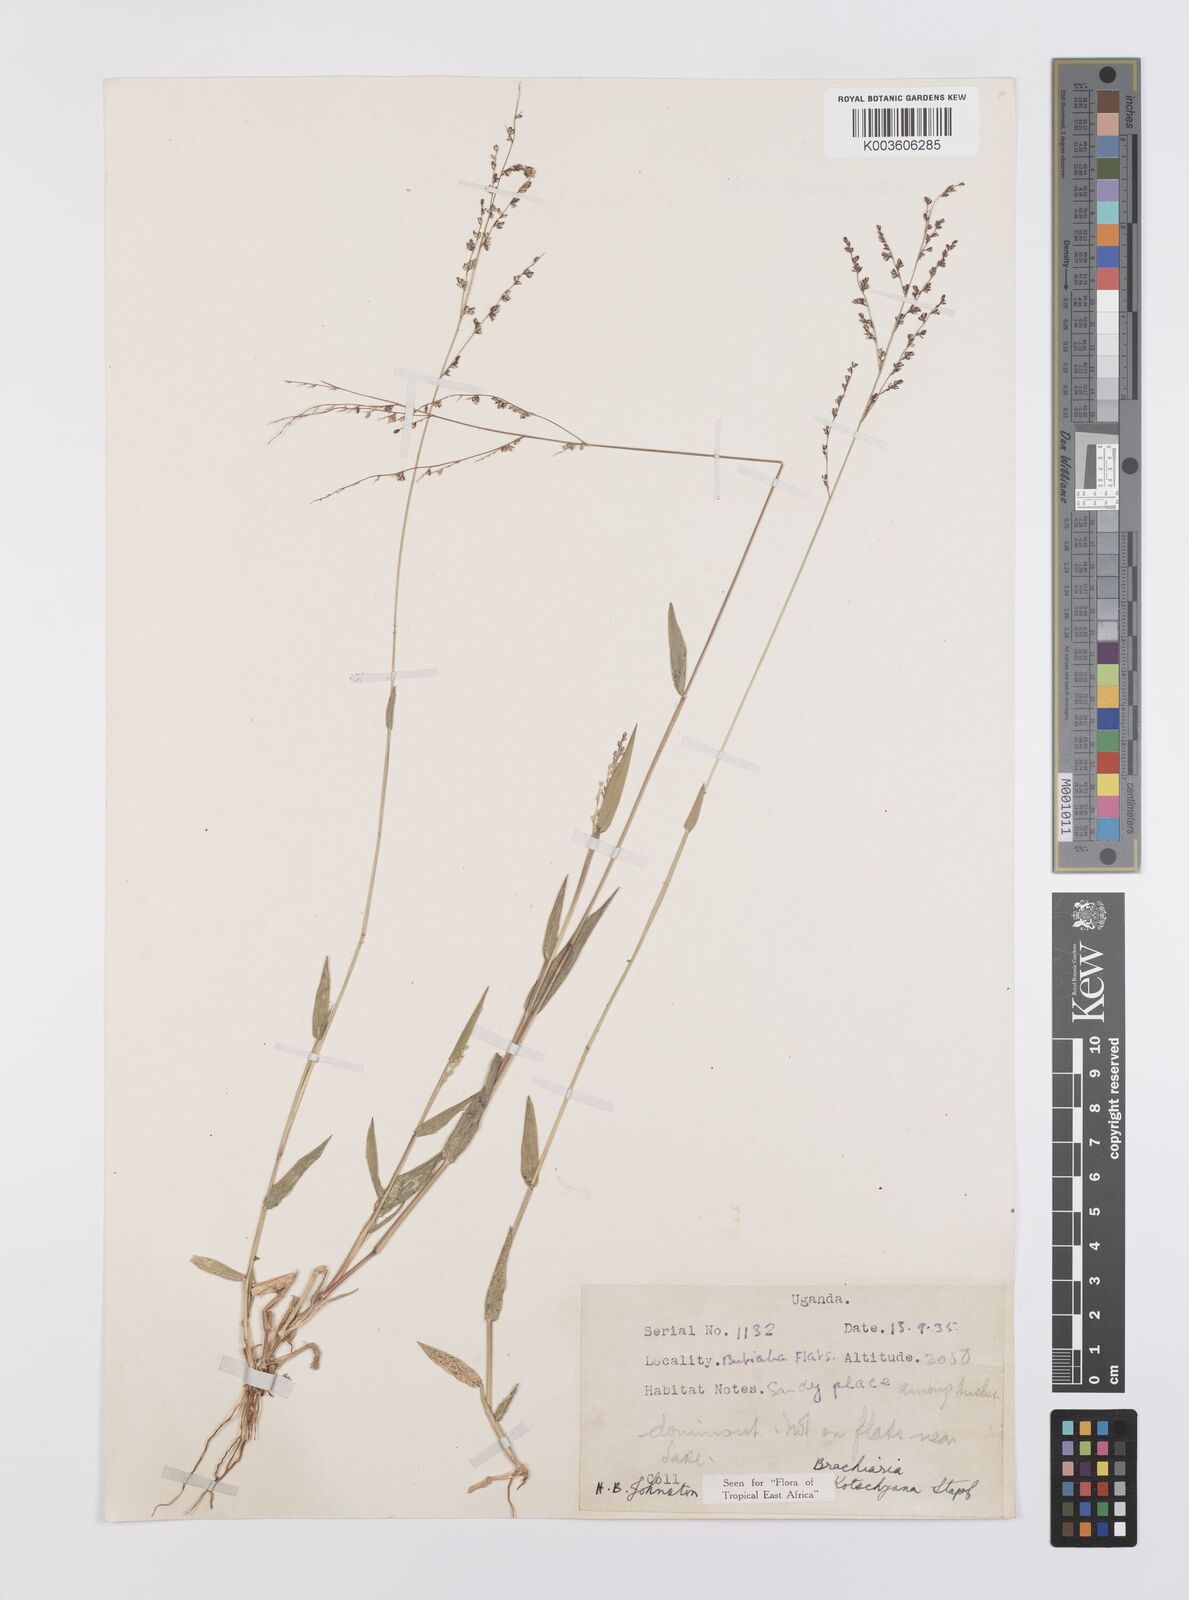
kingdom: Plantae
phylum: Tracheophyta
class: Liliopsida
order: Poales
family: Poaceae
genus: Urochloa
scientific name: Urochloa comata
